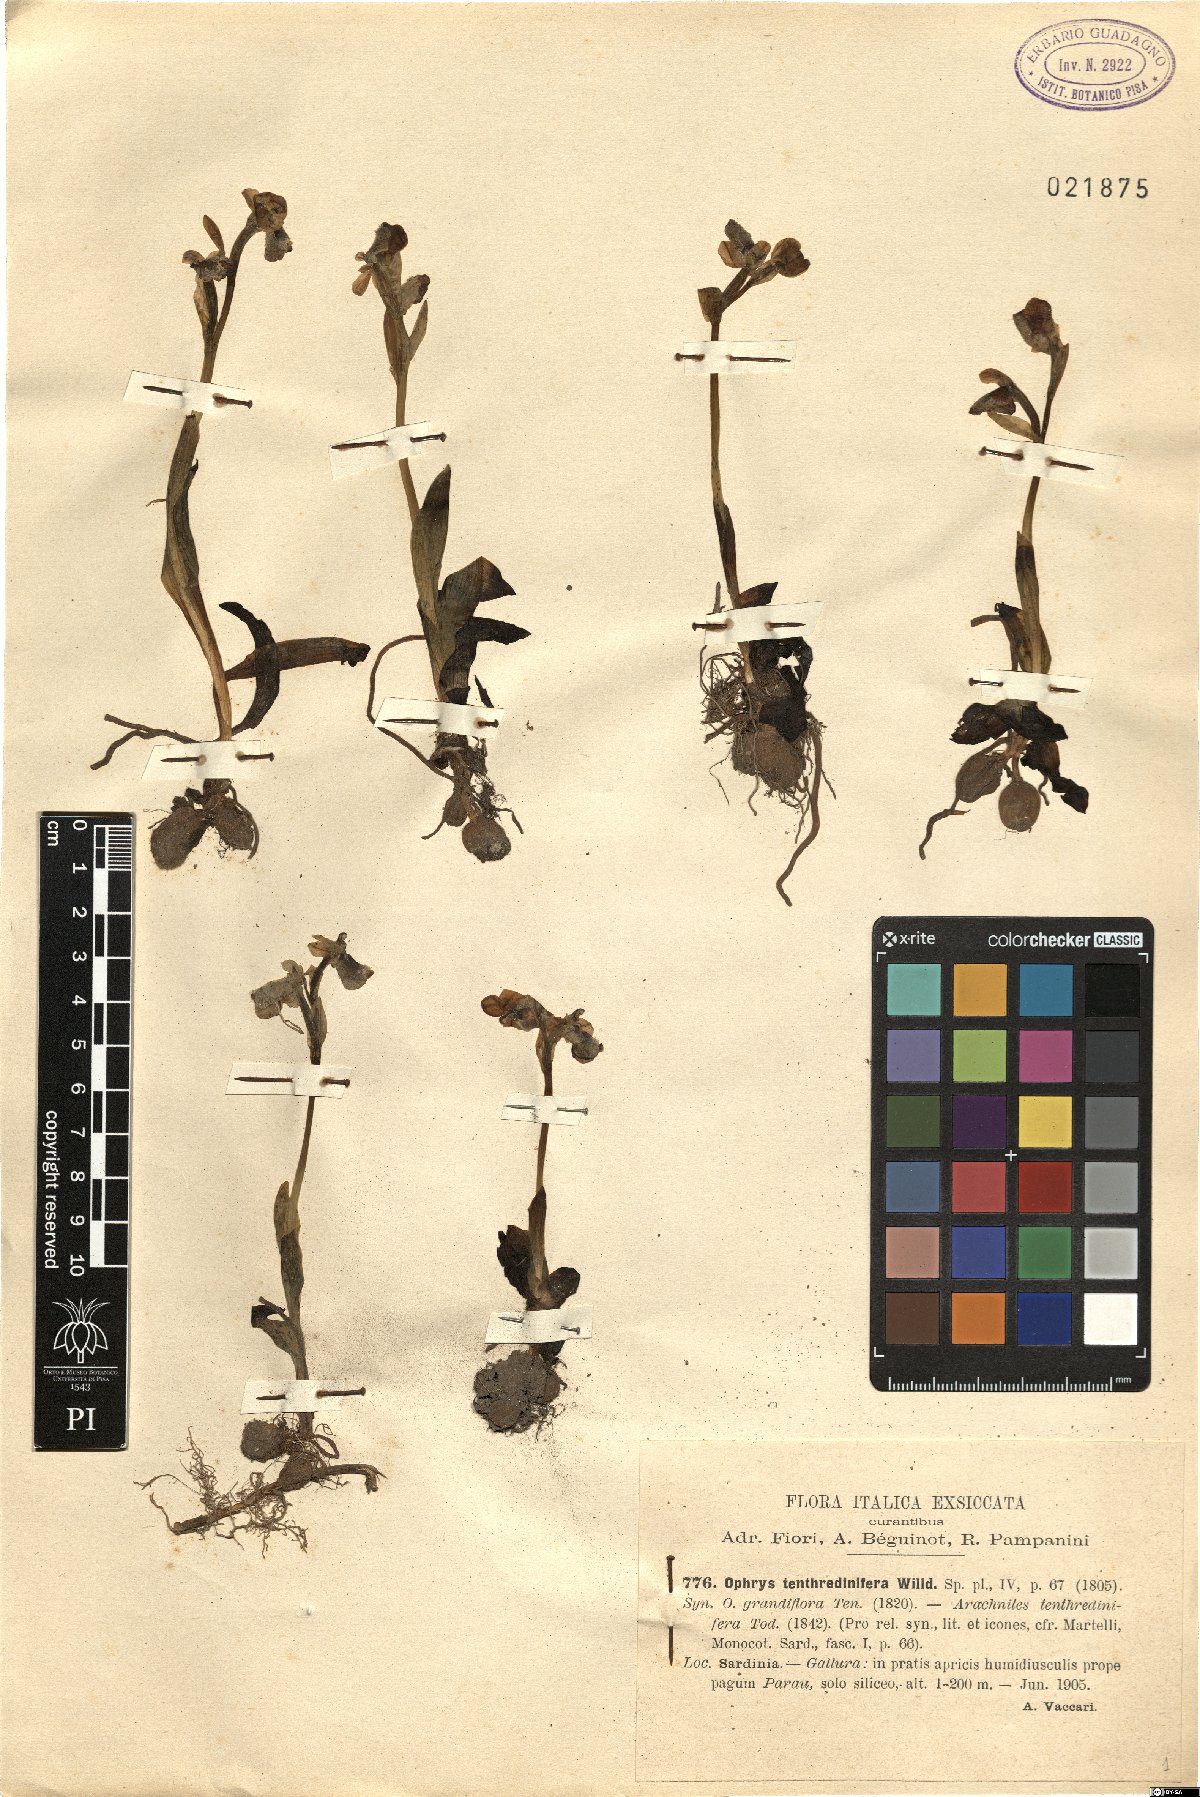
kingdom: Plantae
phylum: Tracheophyta
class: Liliopsida
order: Asparagales
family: Orchidaceae
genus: Ophrys
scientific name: Ophrys tenthredinifera
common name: Sawfly orchid
